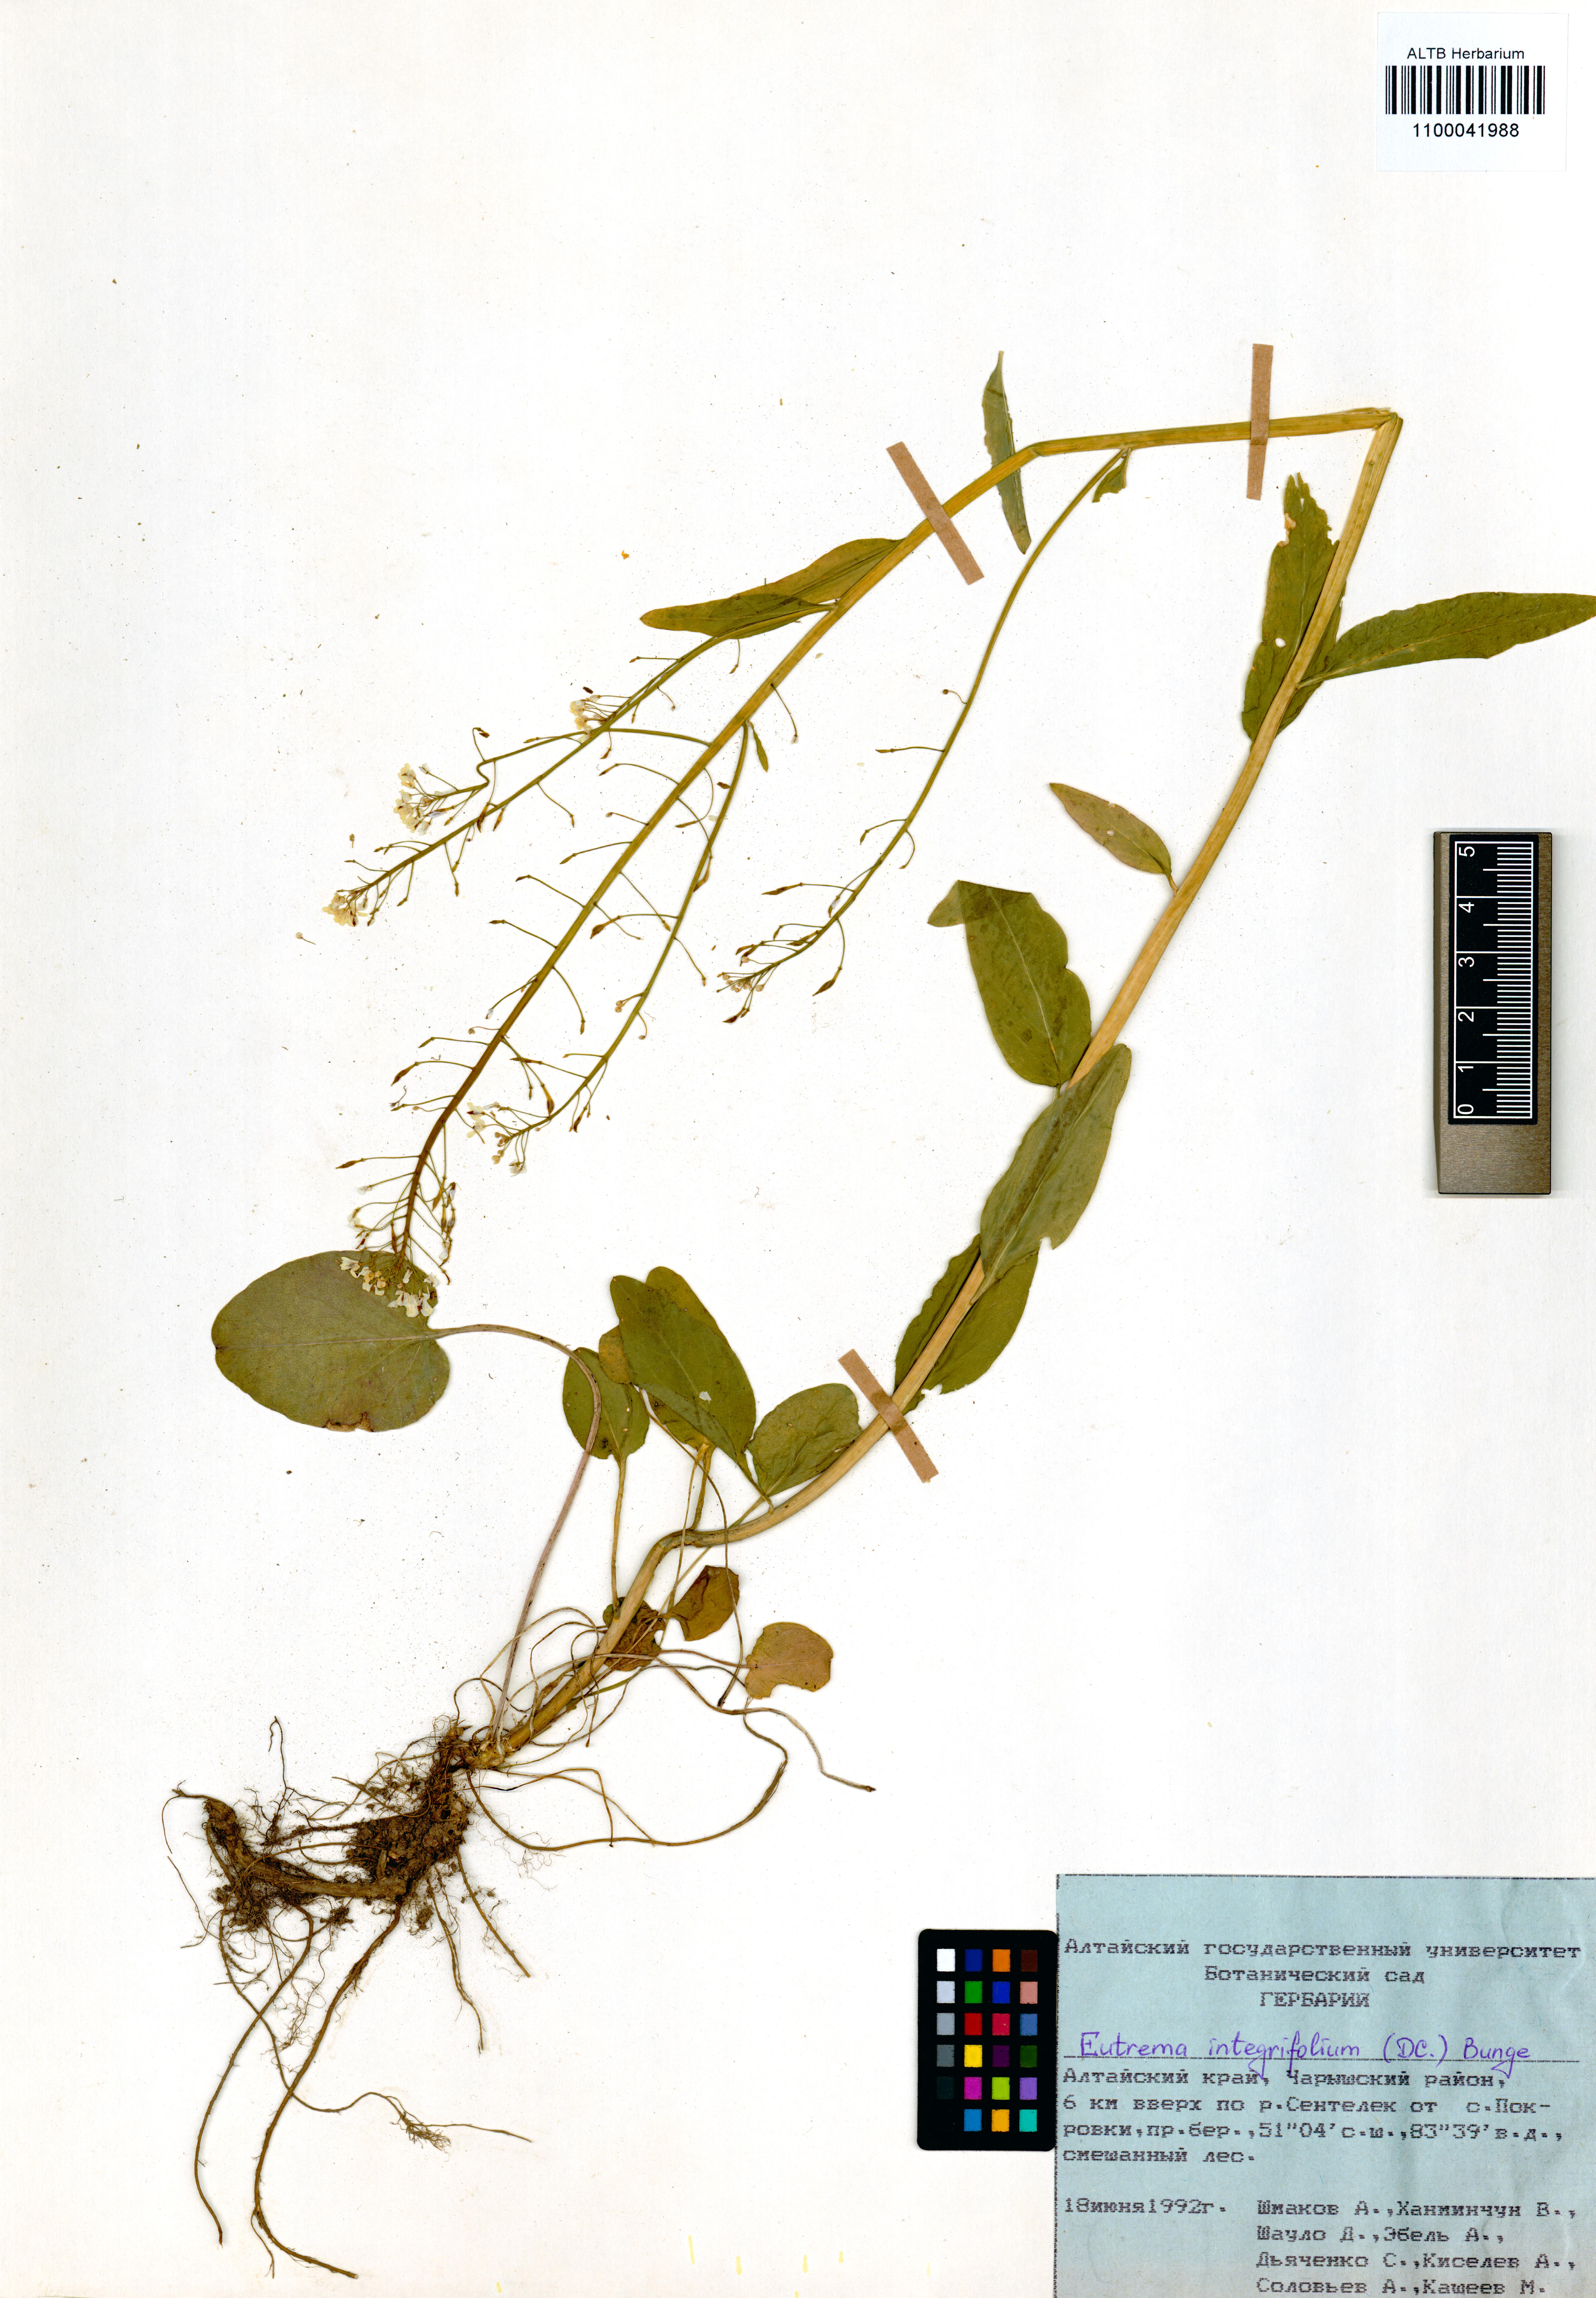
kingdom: Plantae
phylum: Tracheophyta
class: Magnoliopsida
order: Brassicales
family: Brassicaceae
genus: Eutrema
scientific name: Eutrema integrifolium
